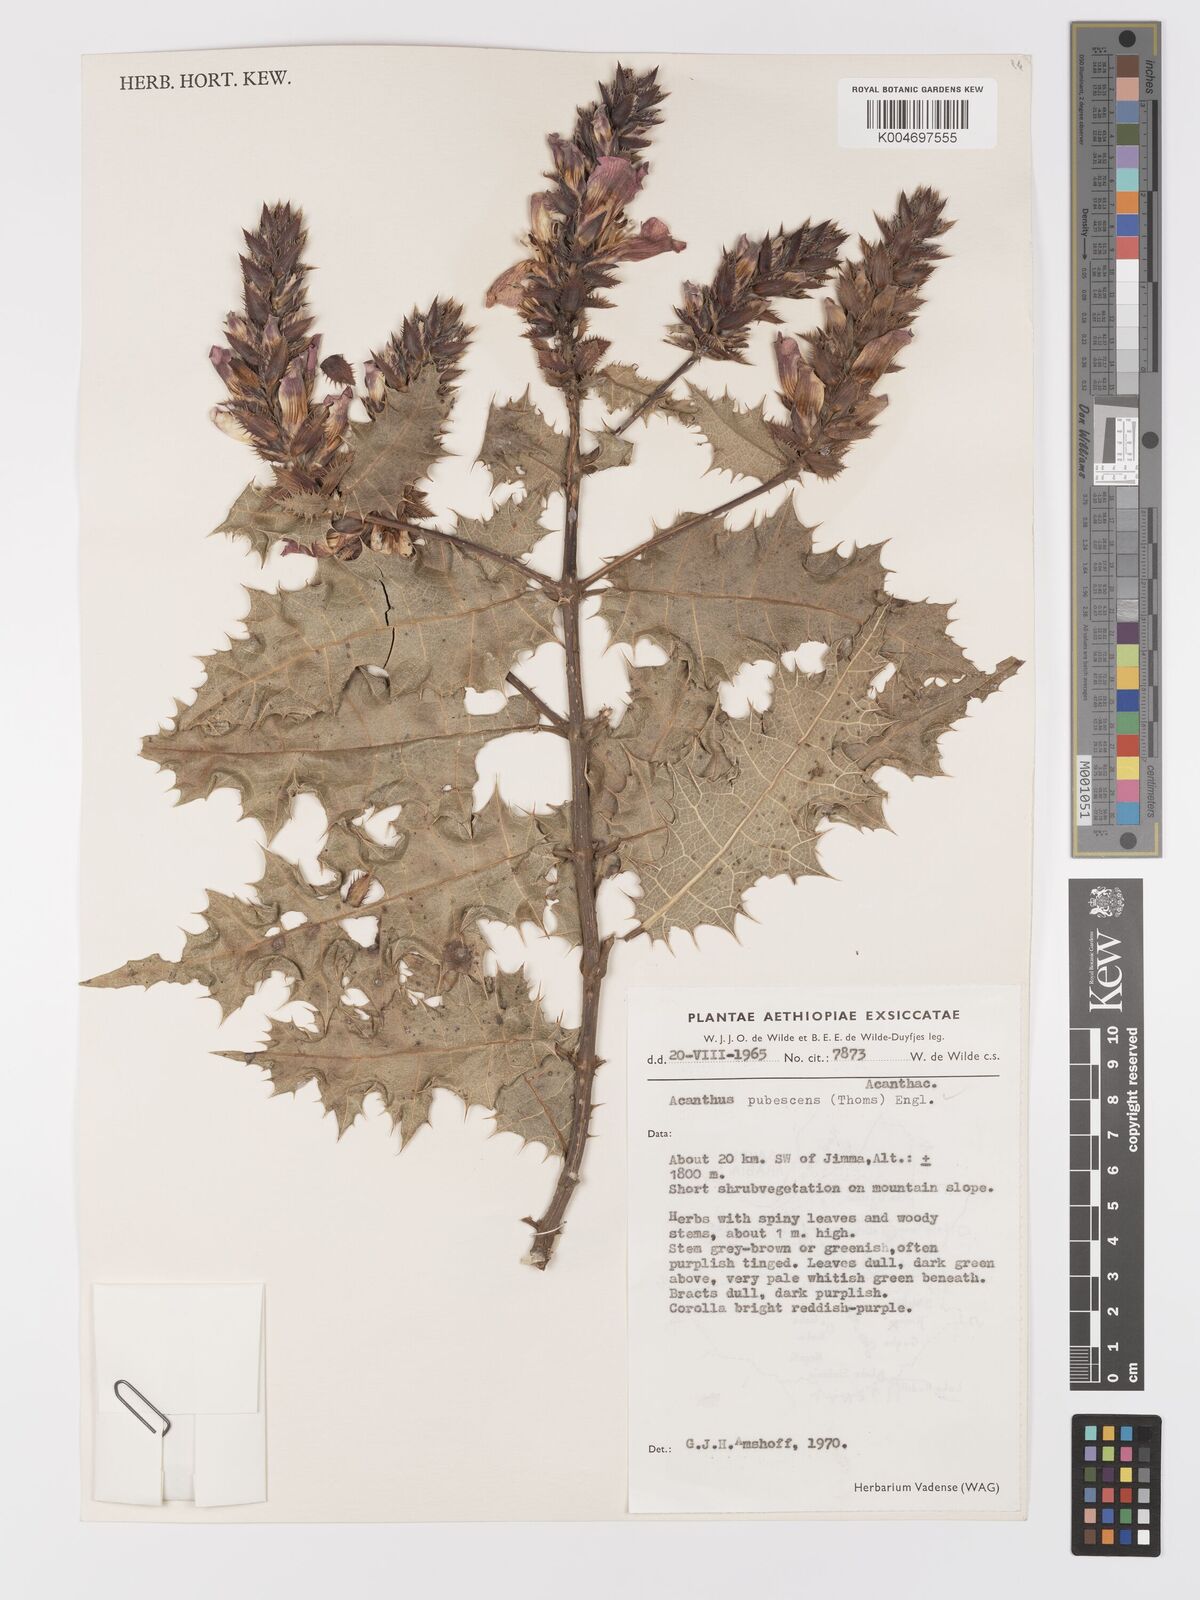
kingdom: Plantae
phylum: Tracheophyta
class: Magnoliopsida
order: Lamiales
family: Acanthaceae
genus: Acanthus
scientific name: Acanthus polystachyus
